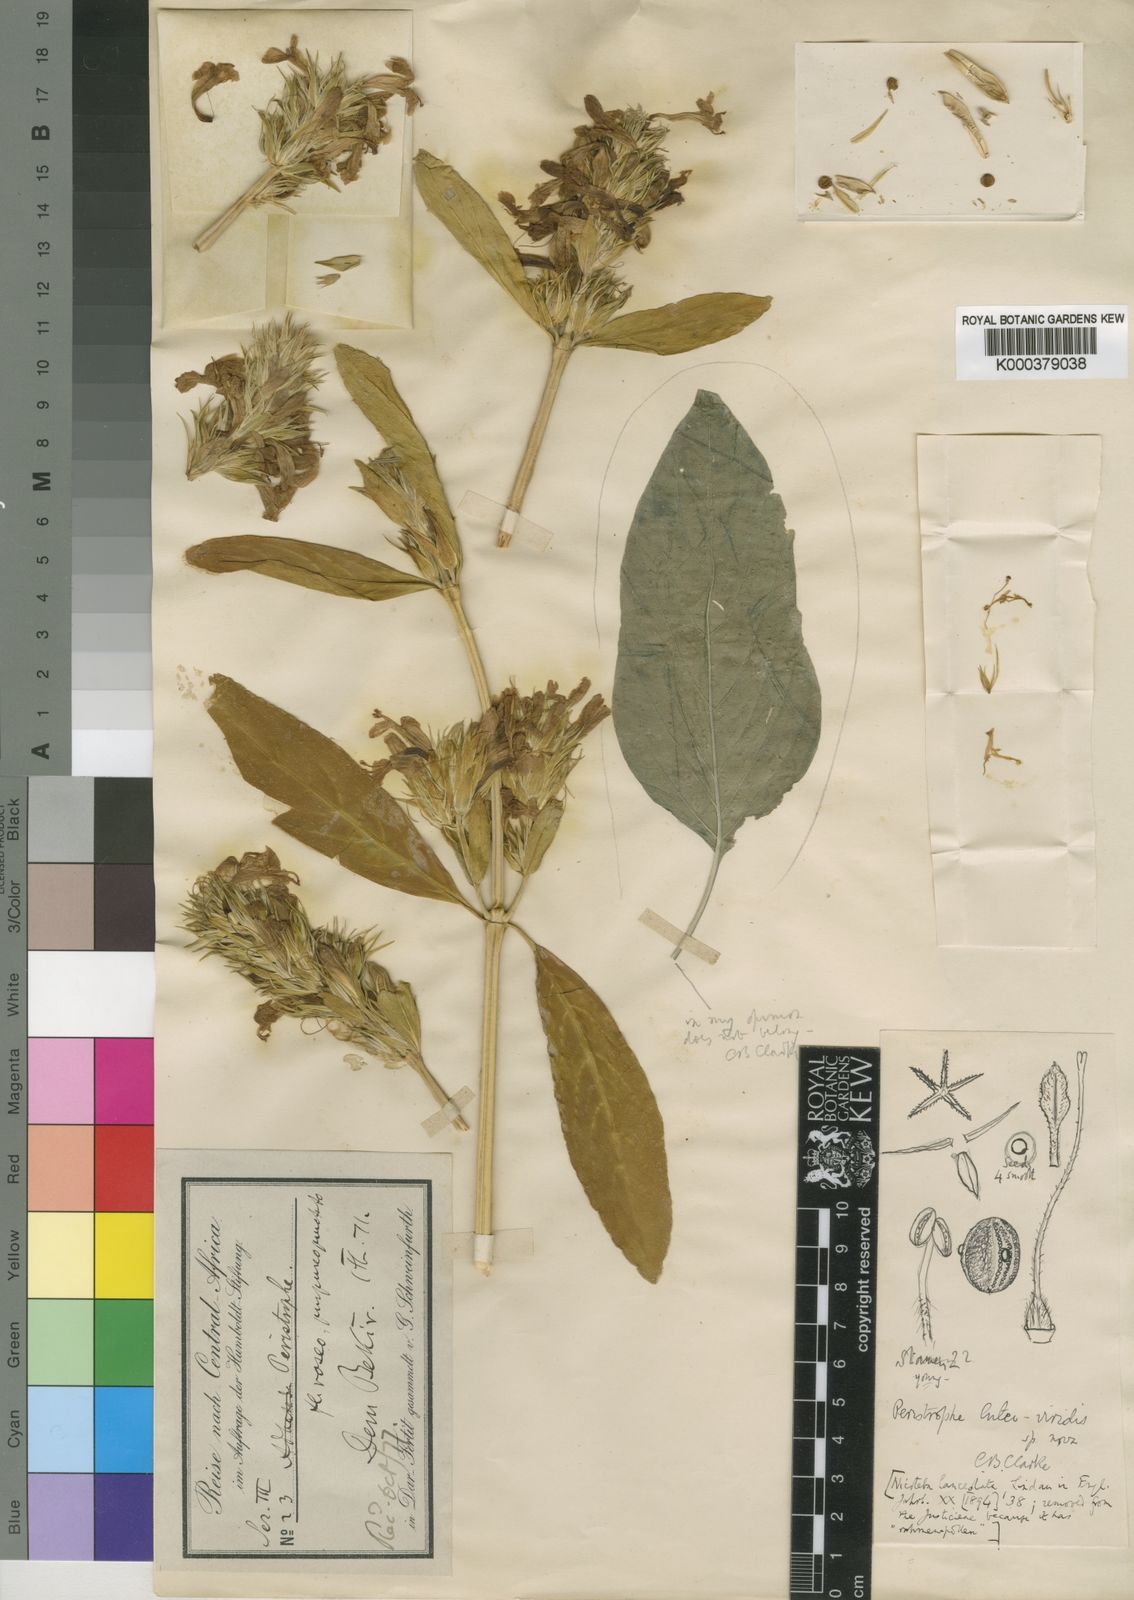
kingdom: Plantae
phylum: Tracheophyta
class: Magnoliopsida
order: Lamiales
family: Acanthaceae
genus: Dicliptera
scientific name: Dicliptera lanceolata
